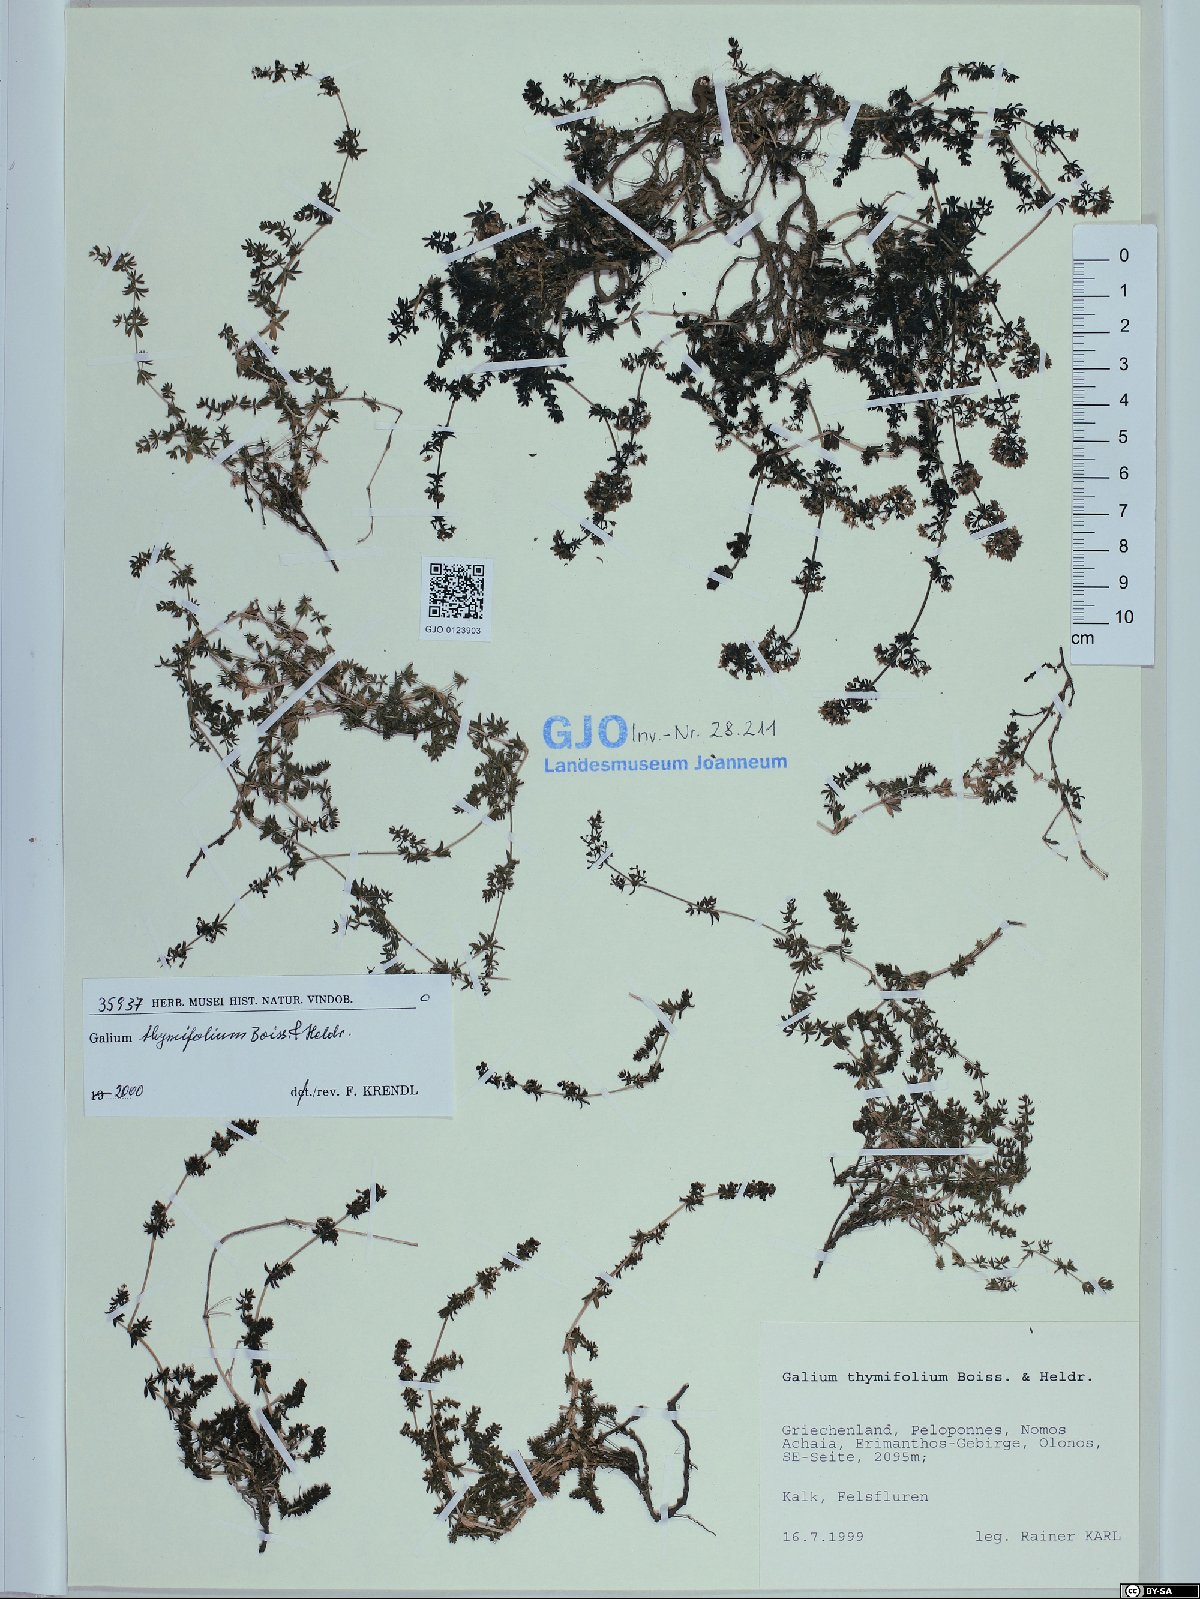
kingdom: Plantae
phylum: Tracheophyta
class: Magnoliopsida
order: Gentianales
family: Rubiaceae
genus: Galium
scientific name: Galium thymifolium
